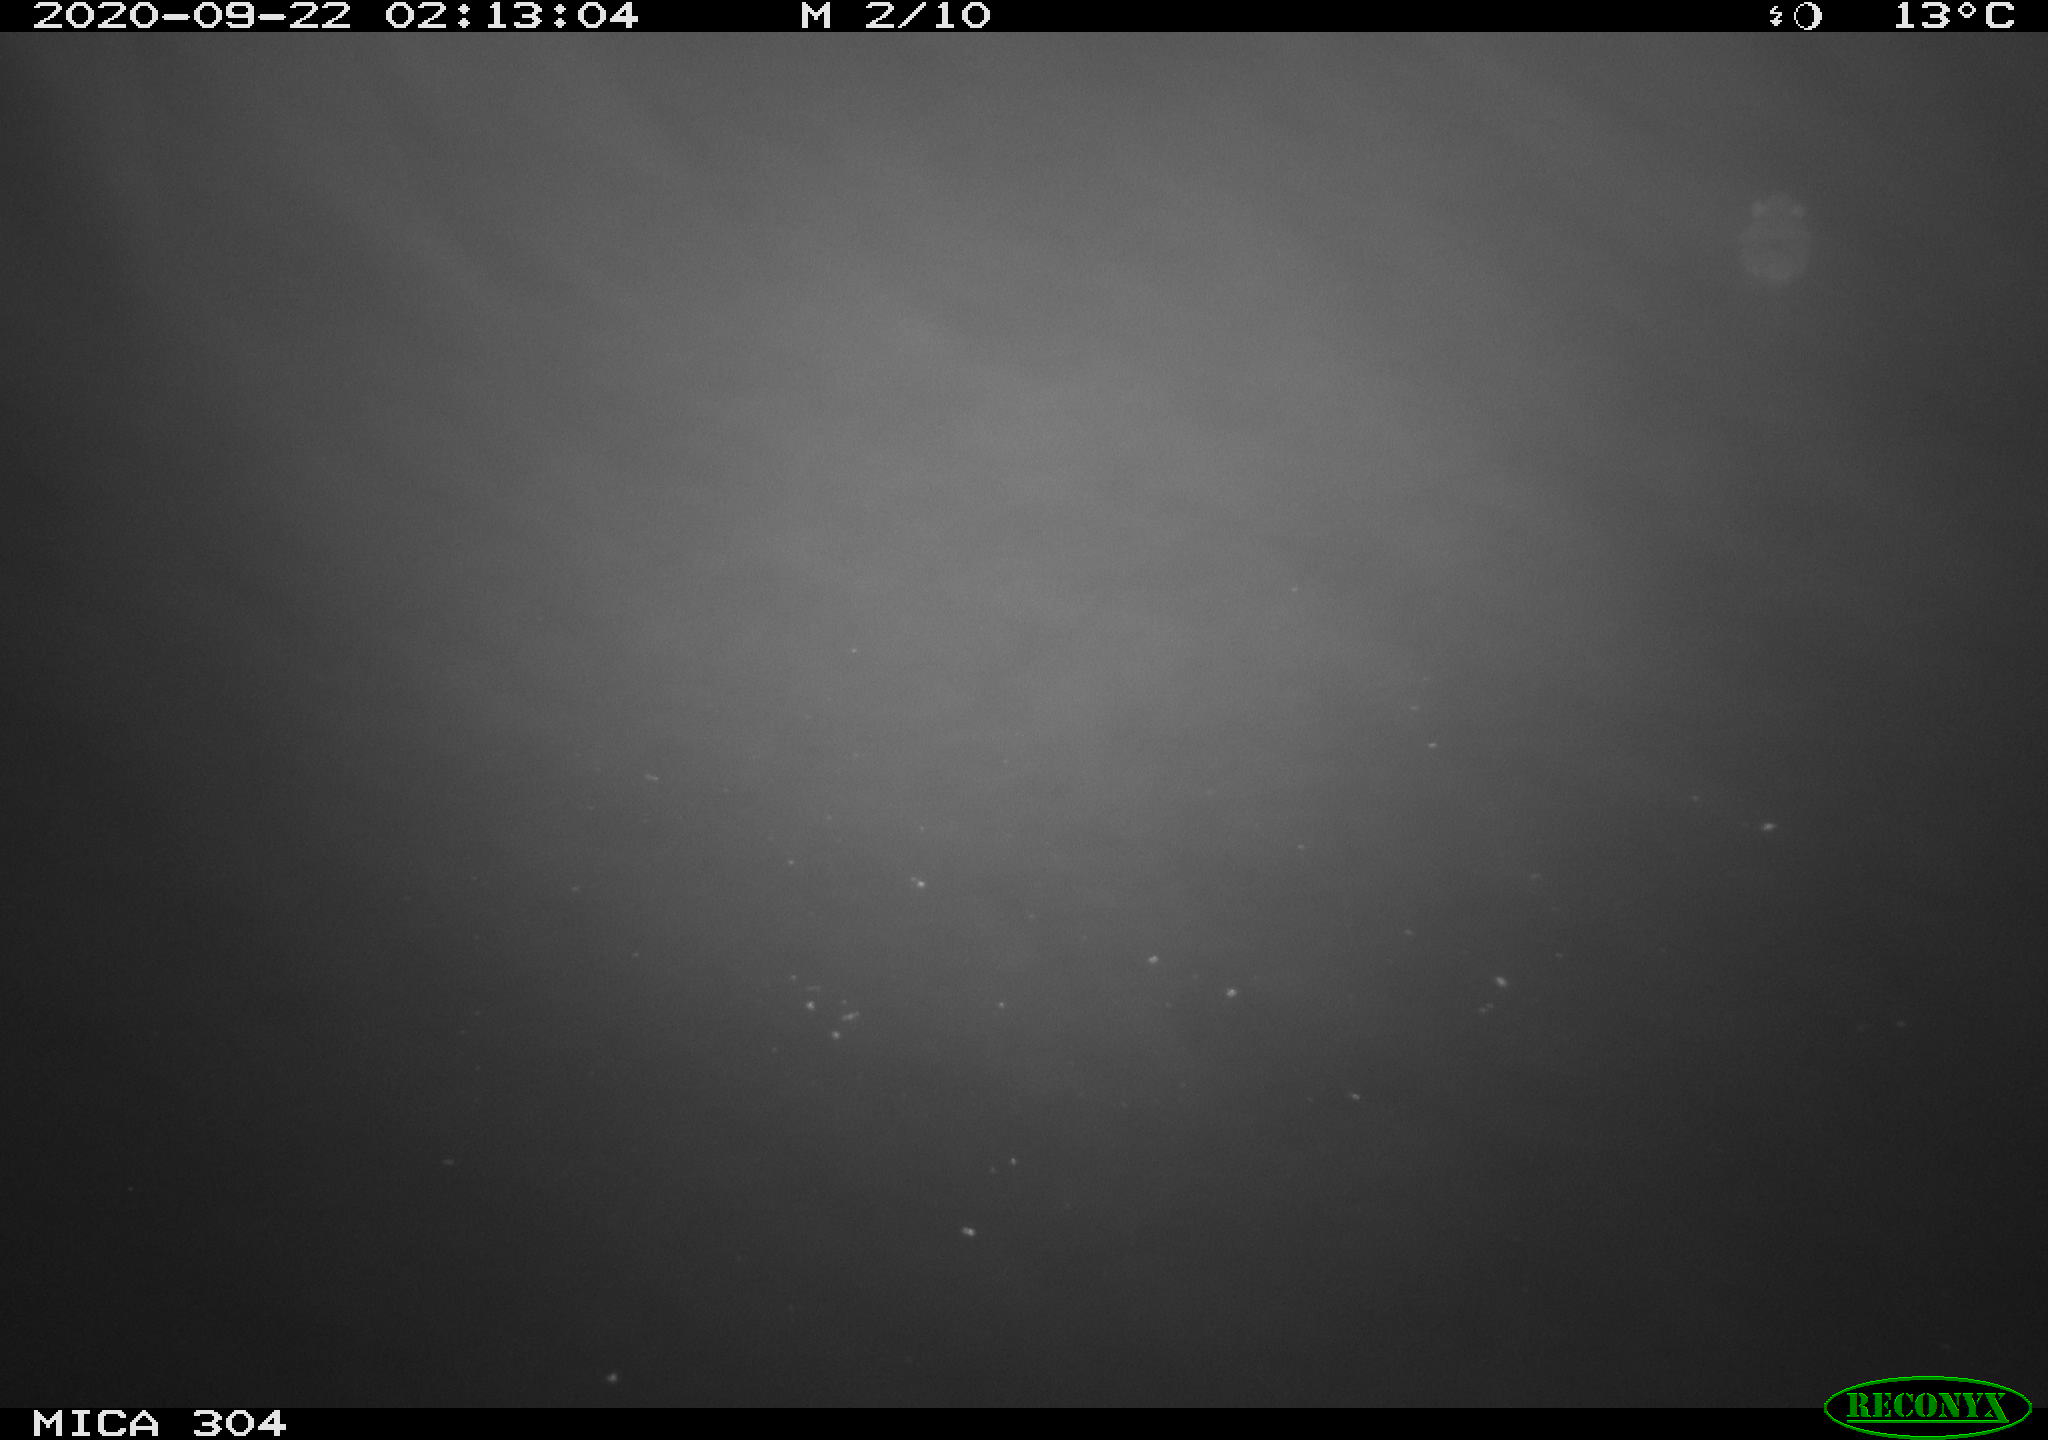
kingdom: Animalia
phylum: Chordata
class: Mammalia
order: Rodentia
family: Cricetidae
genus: Ondatra
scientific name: Ondatra zibethicus
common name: Muskrat
